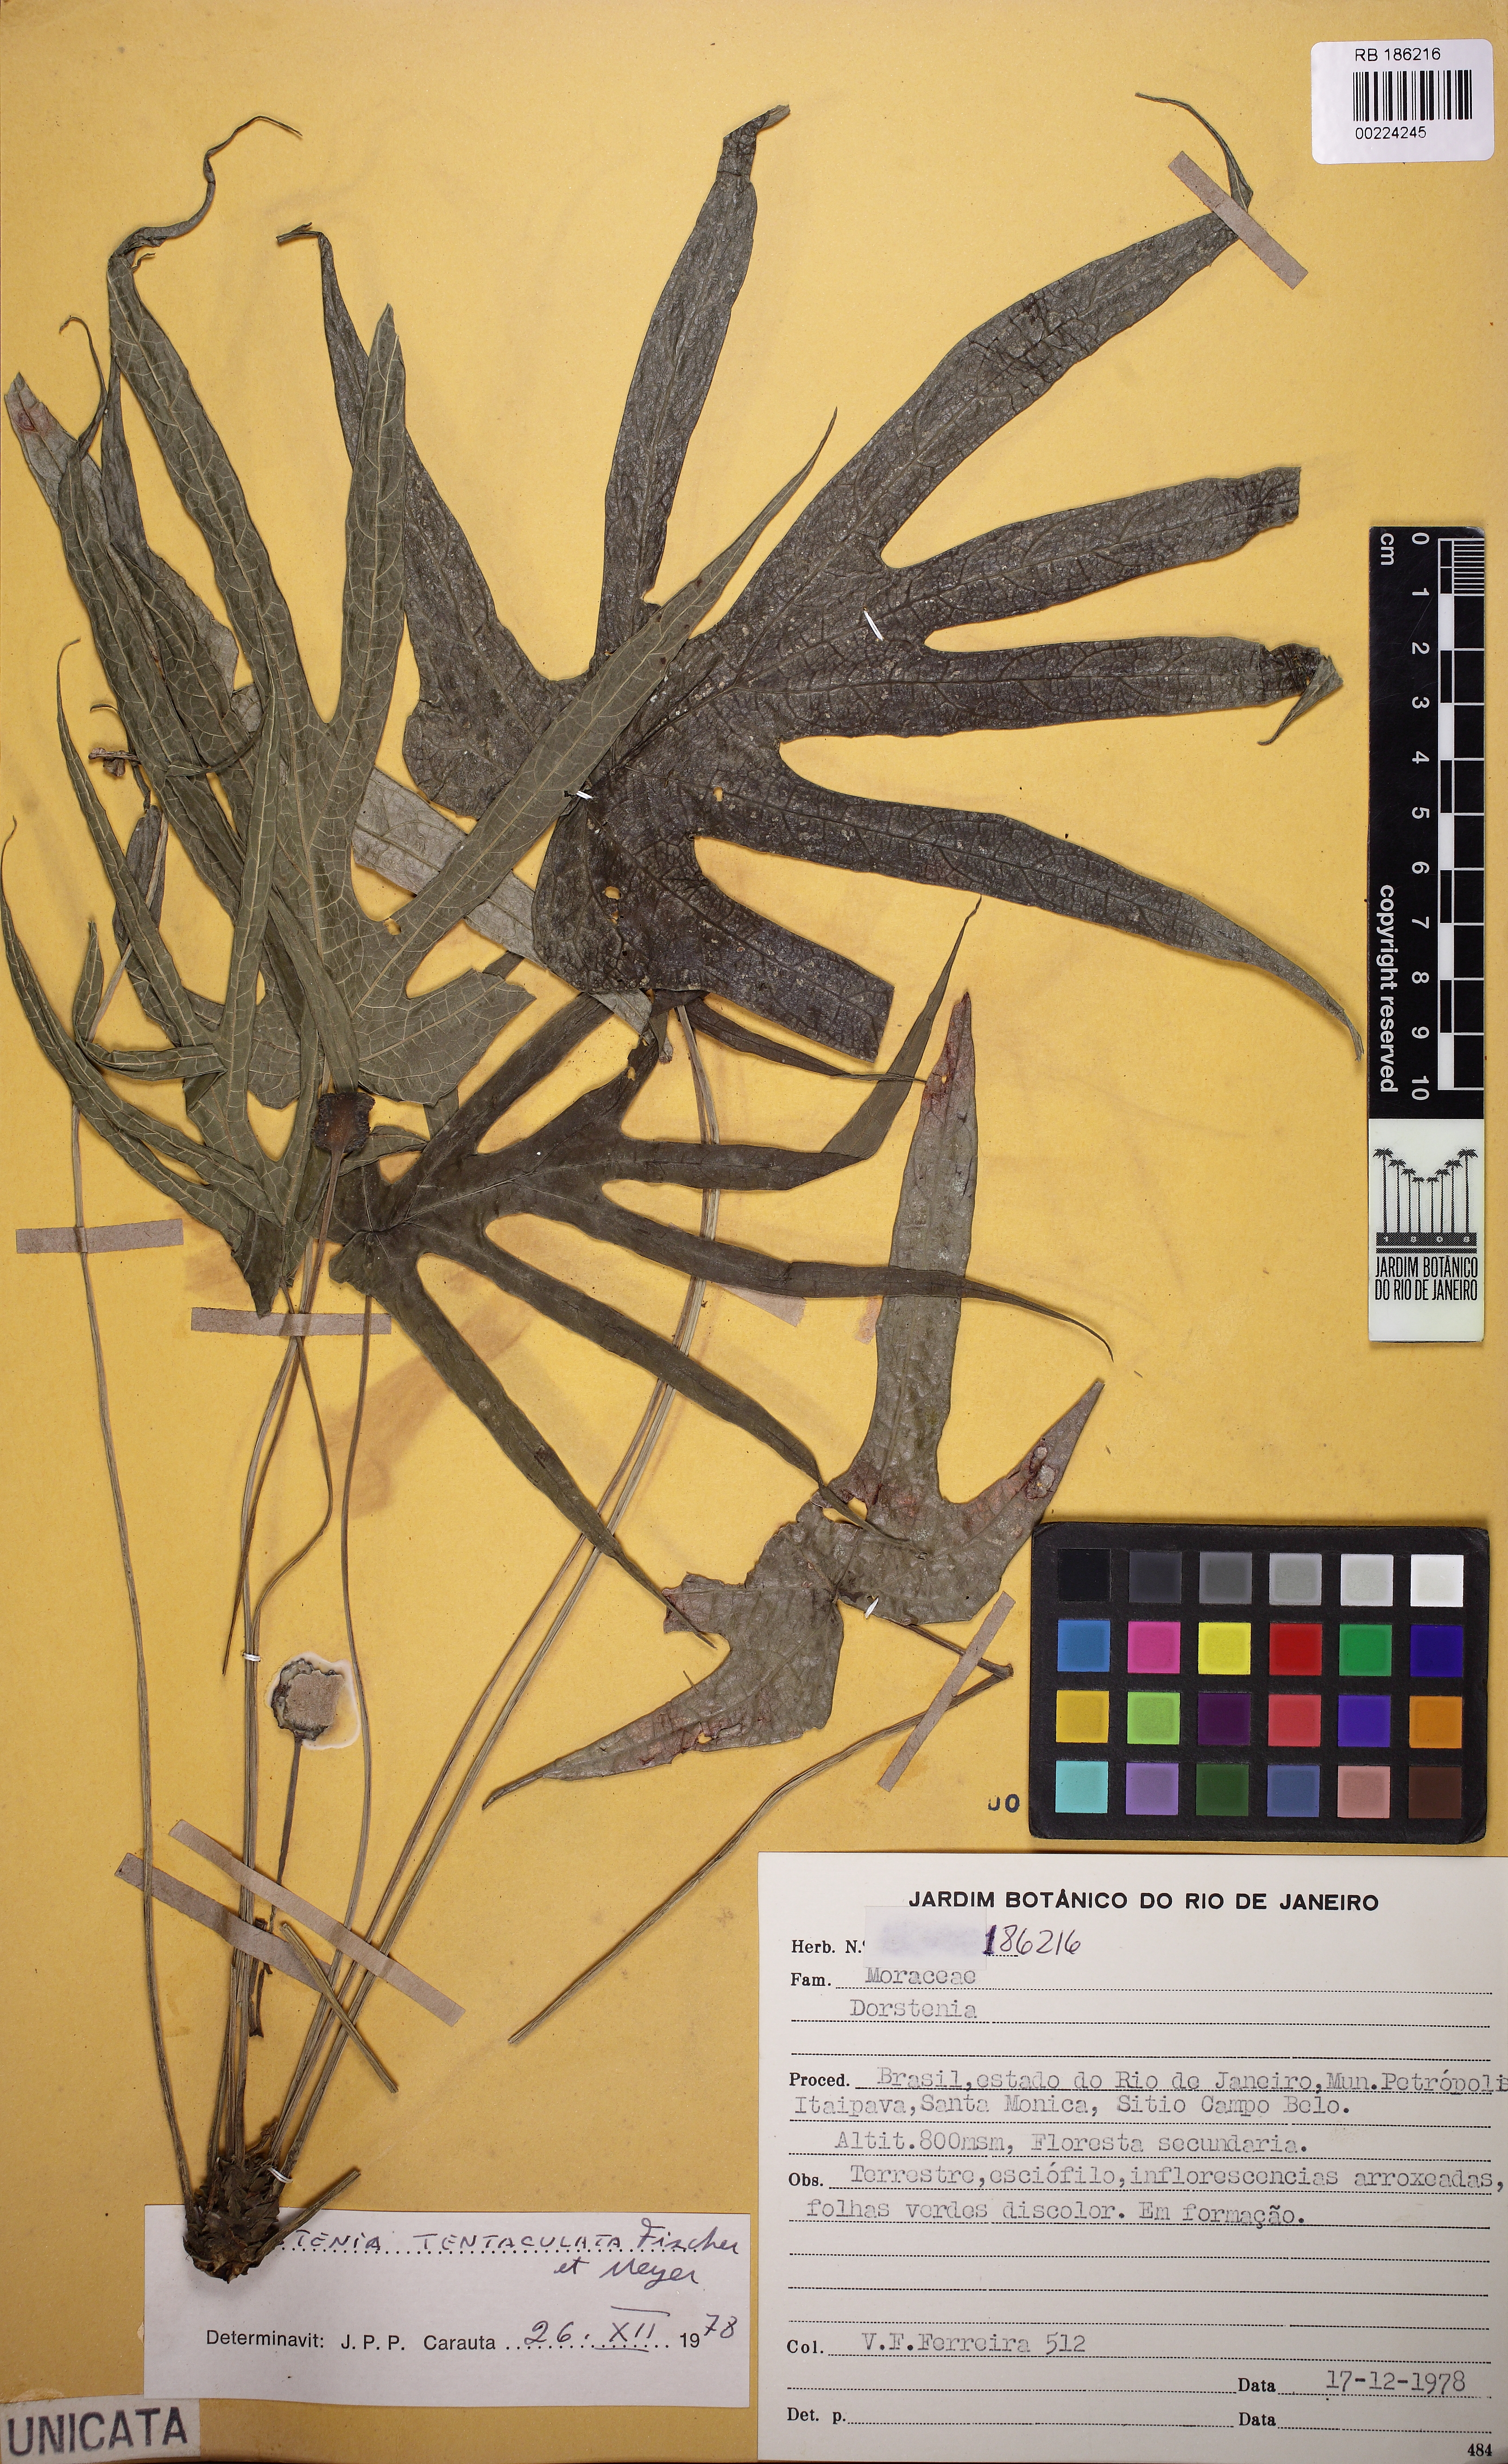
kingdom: Plantae
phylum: Tracheophyta
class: Magnoliopsida
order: Rosales
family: Moraceae
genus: Dorstenia
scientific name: Dorstenia arifolia
